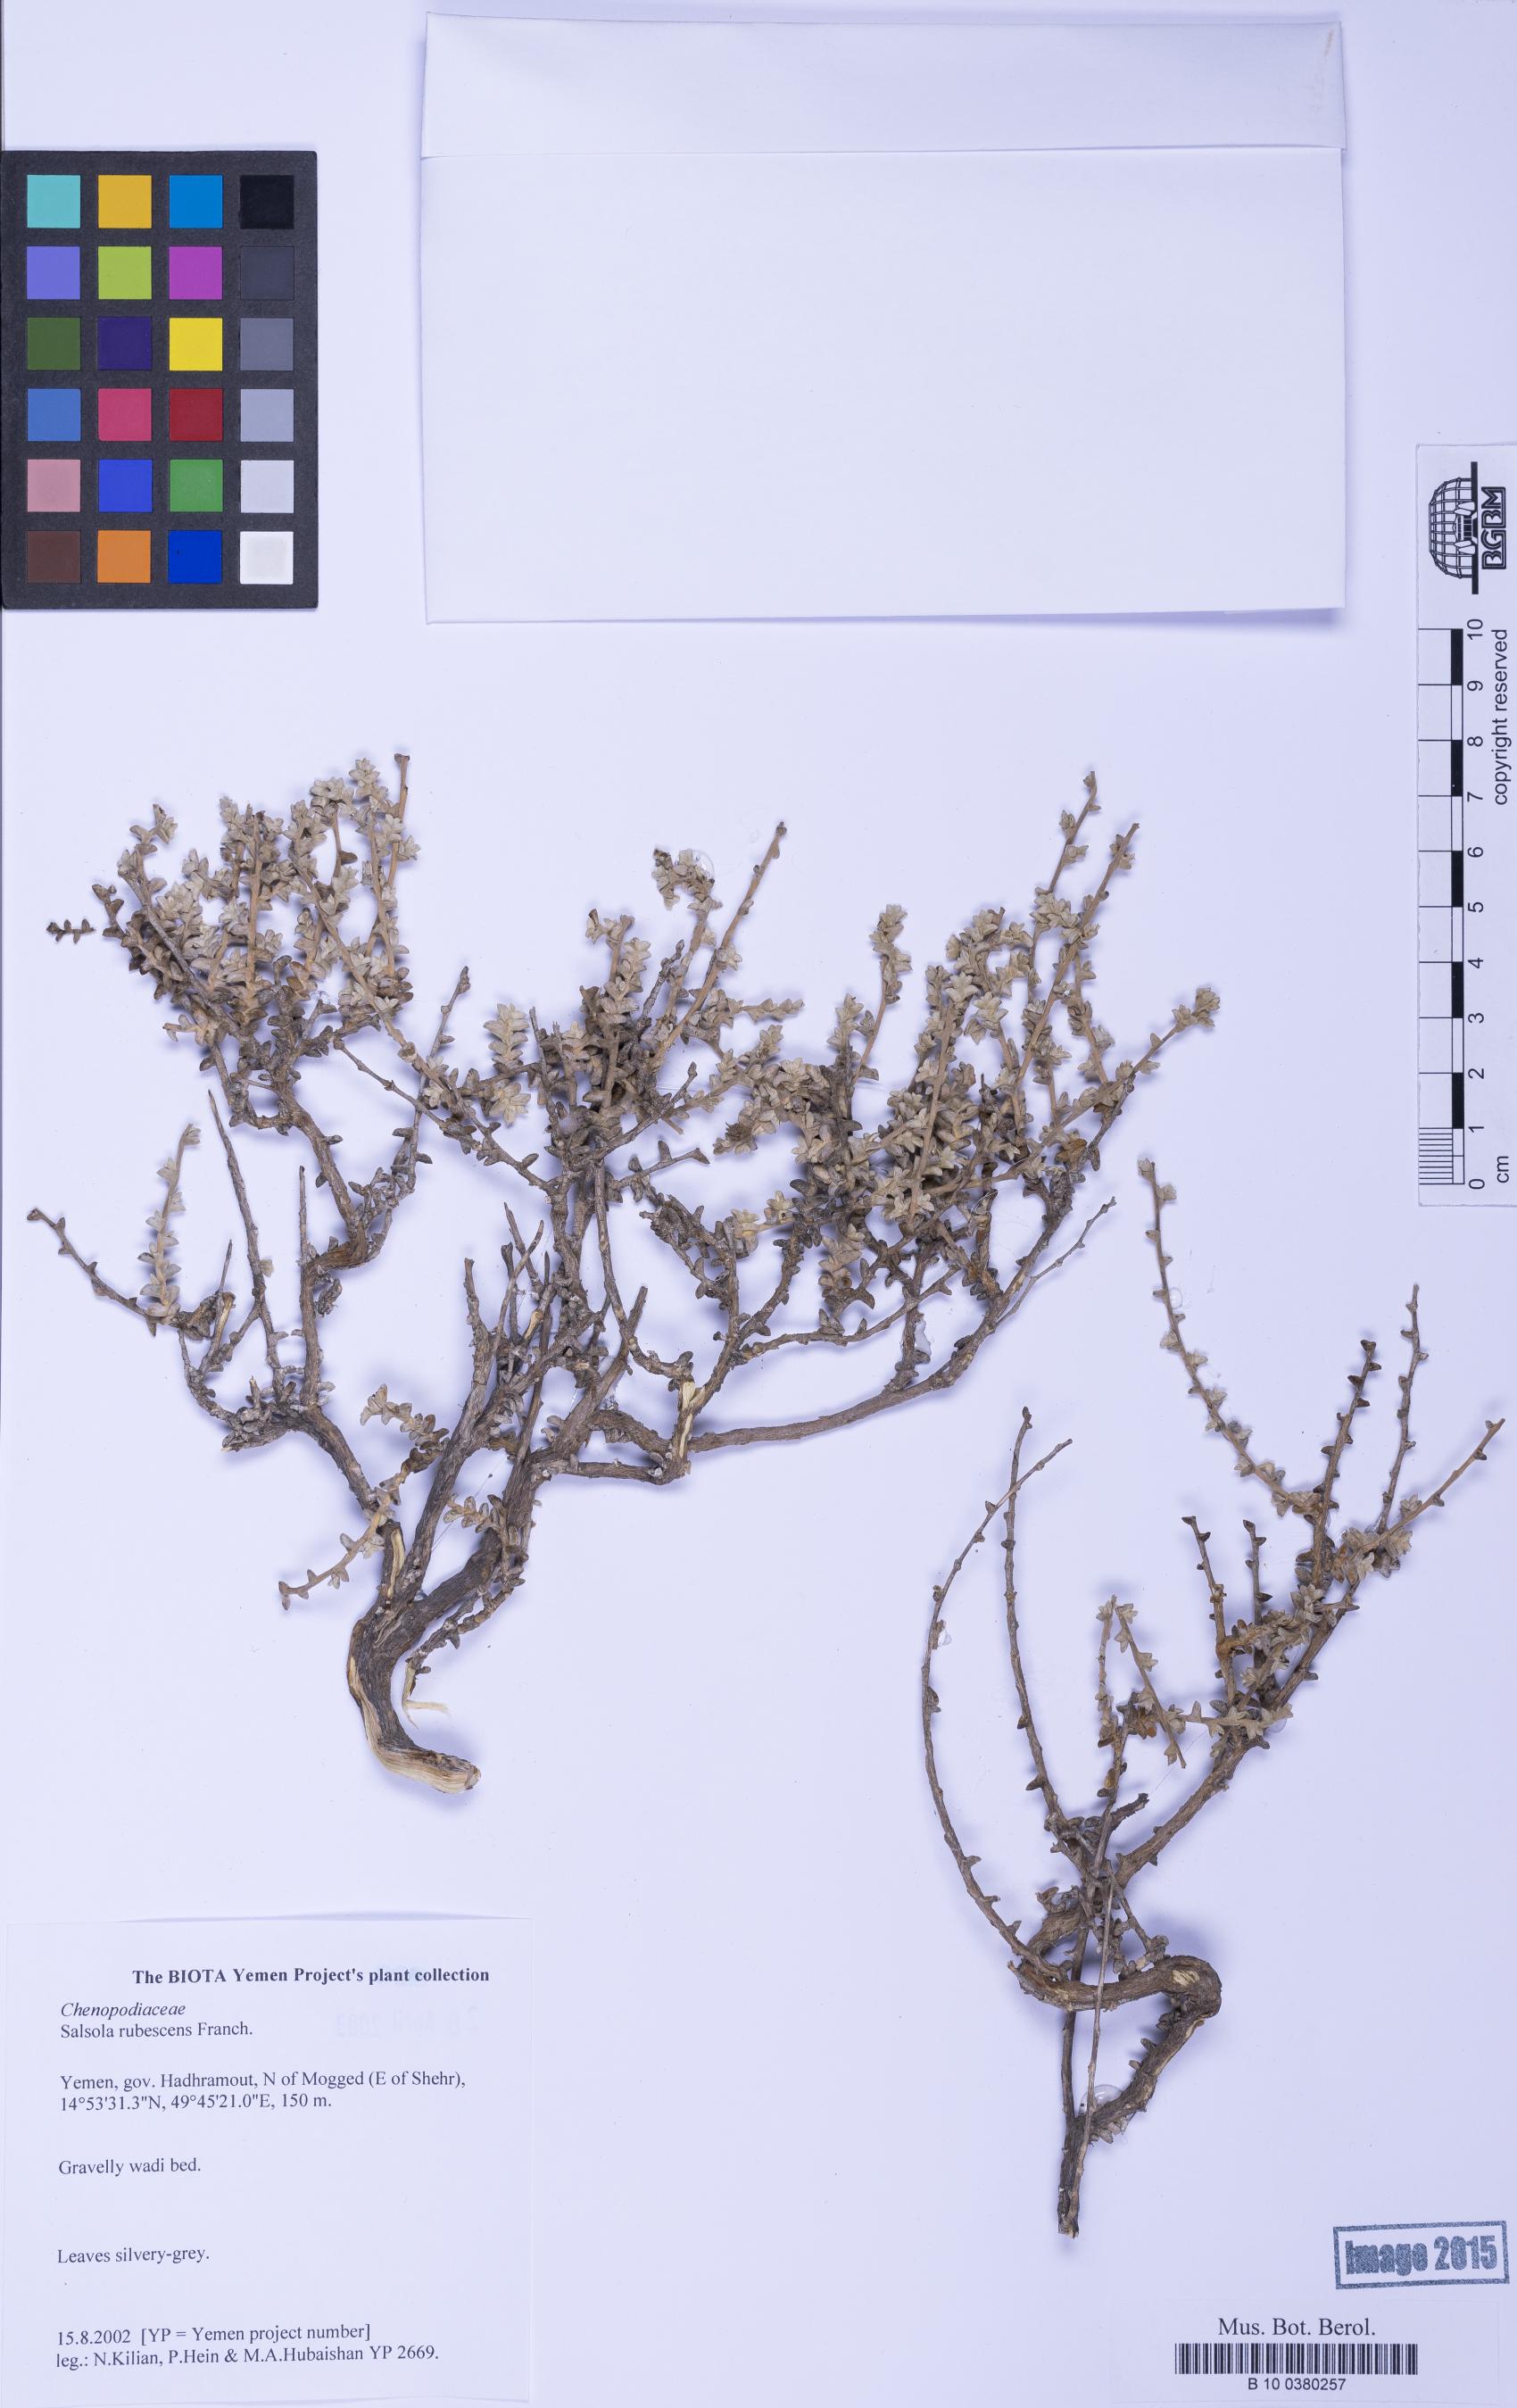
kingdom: Plantae
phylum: Tracheophyta
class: Magnoliopsida
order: Caryophyllales
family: Amaranthaceae
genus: Kaviria
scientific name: Kaviria rubescens
